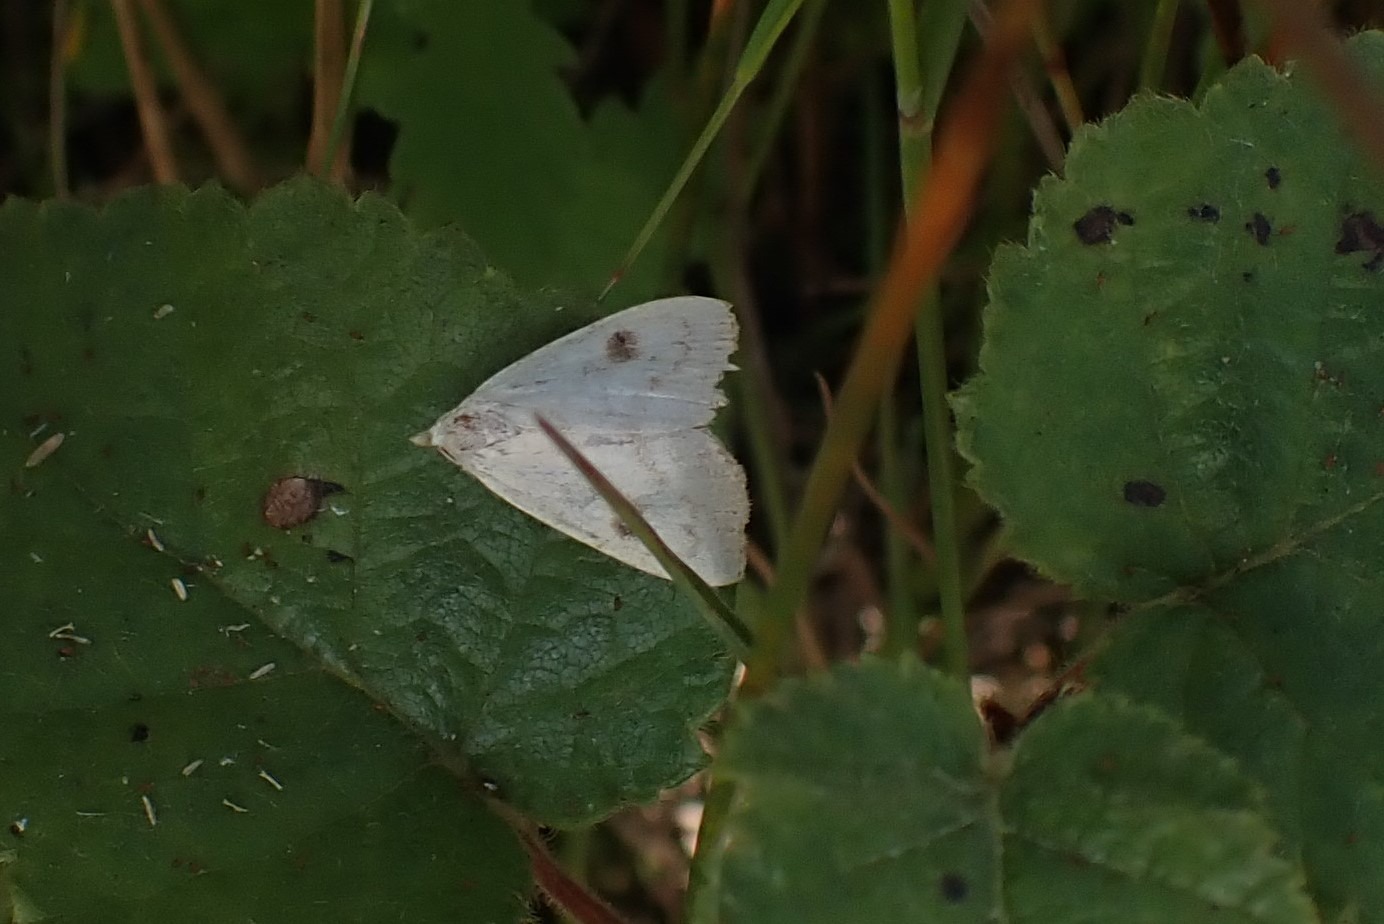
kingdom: Animalia
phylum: Arthropoda
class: Insecta
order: Lepidoptera
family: Erebidae
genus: Rivula
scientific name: Rivula sericealis
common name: Lille å-ugle
